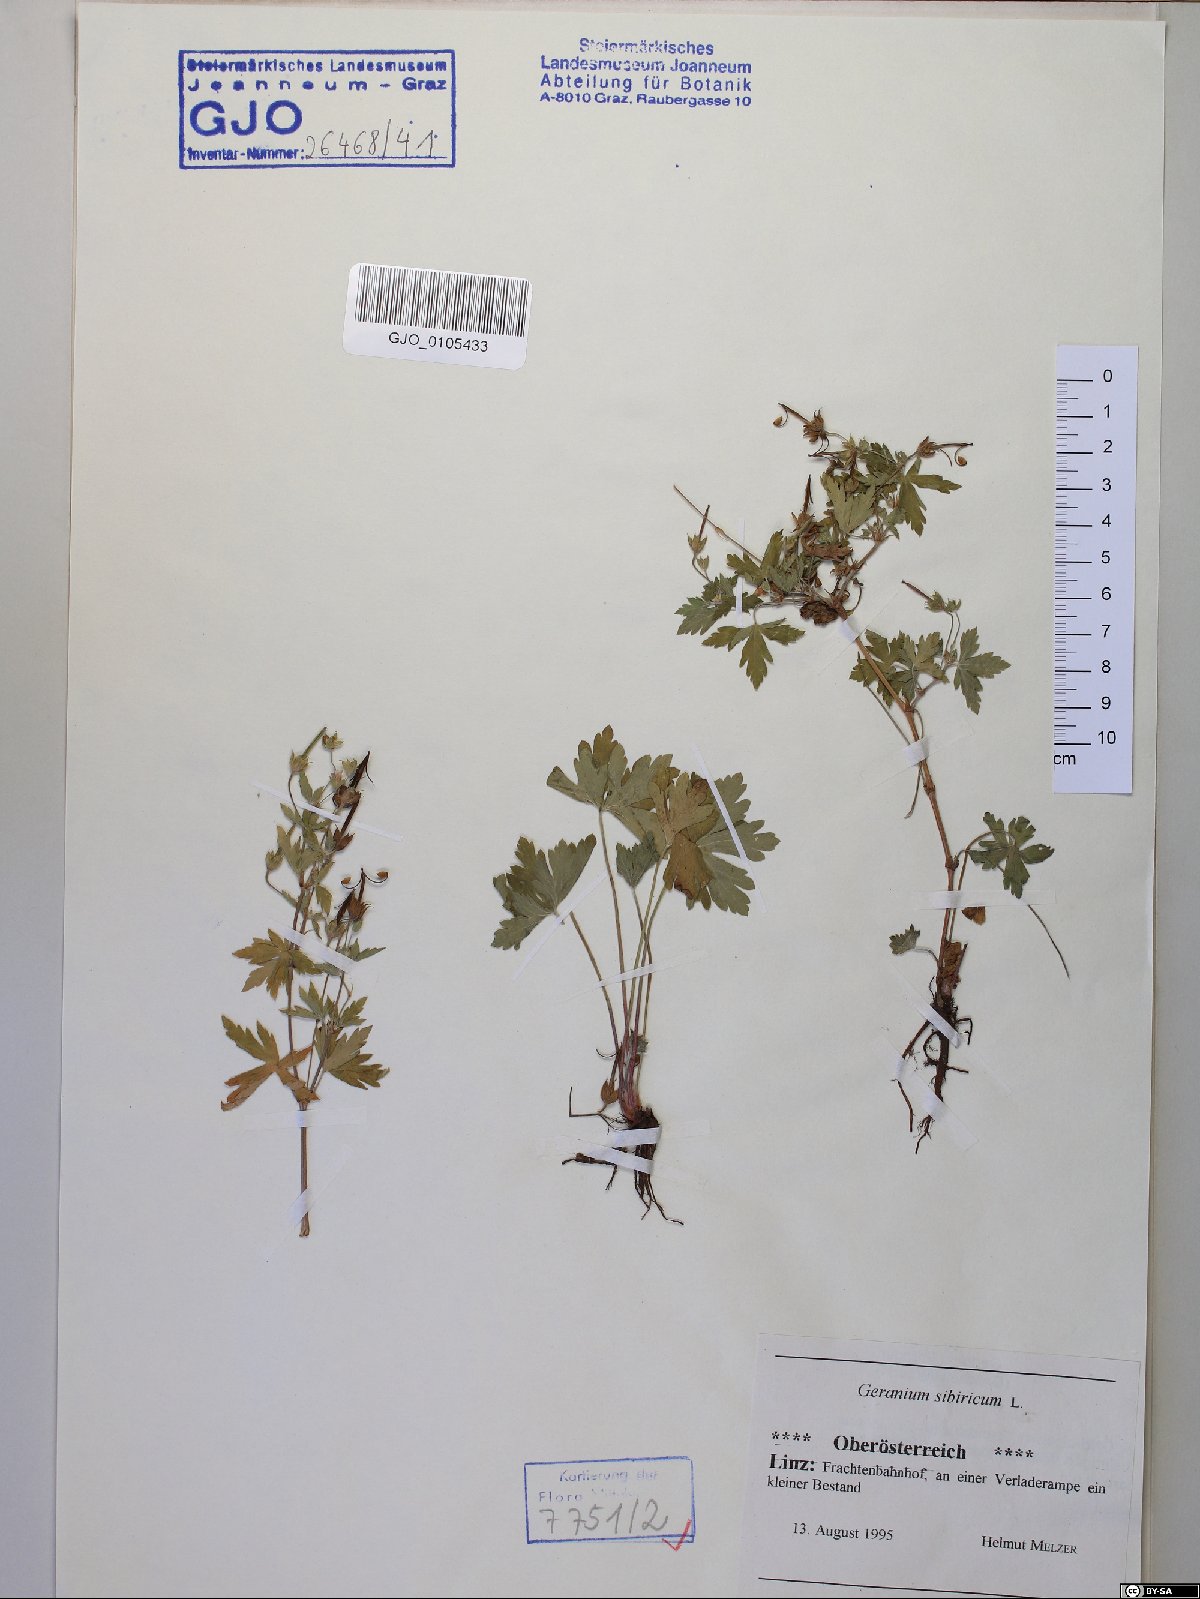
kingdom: Plantae
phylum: Tracheophyta
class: Magnoliopsida
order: Geraniales
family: Geraniaceae
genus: Geranium
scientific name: Geranium sibiricum
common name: Siberian crane's-bill
